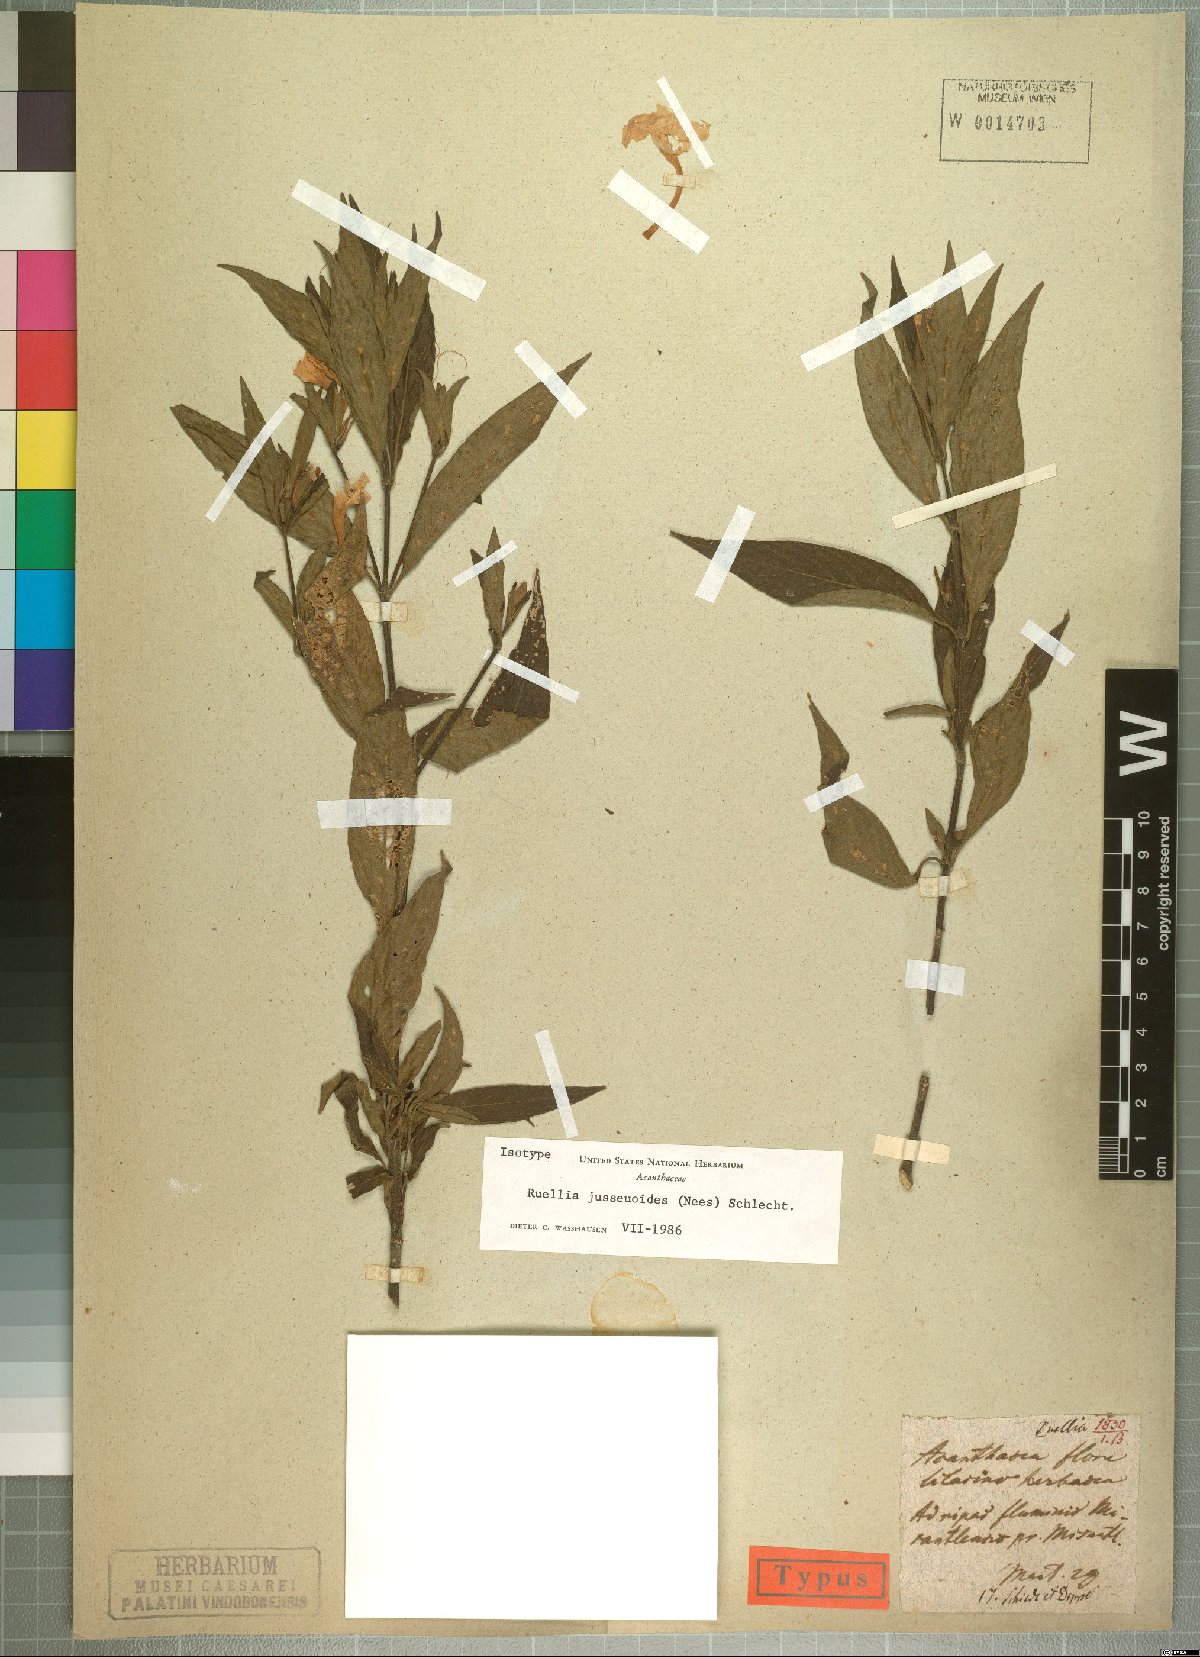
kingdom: Plantae
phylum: Tracheophyta
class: Magnoliopsida
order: Lamiales
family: Acanthaceae
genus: Ruellia
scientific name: Ruellia jussieuoides
